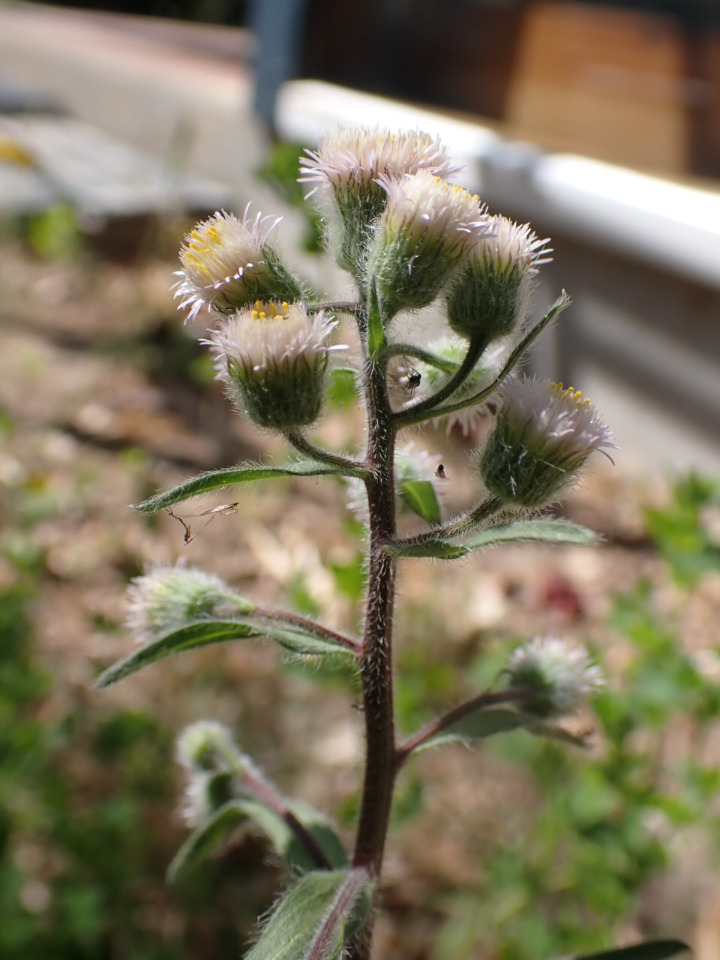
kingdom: Plantae
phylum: Tracheophyta
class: Magnoliopsida
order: Asterales
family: Asteraceae
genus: Erigeron
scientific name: Erigeron acris
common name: Bitter bakkestjerne
